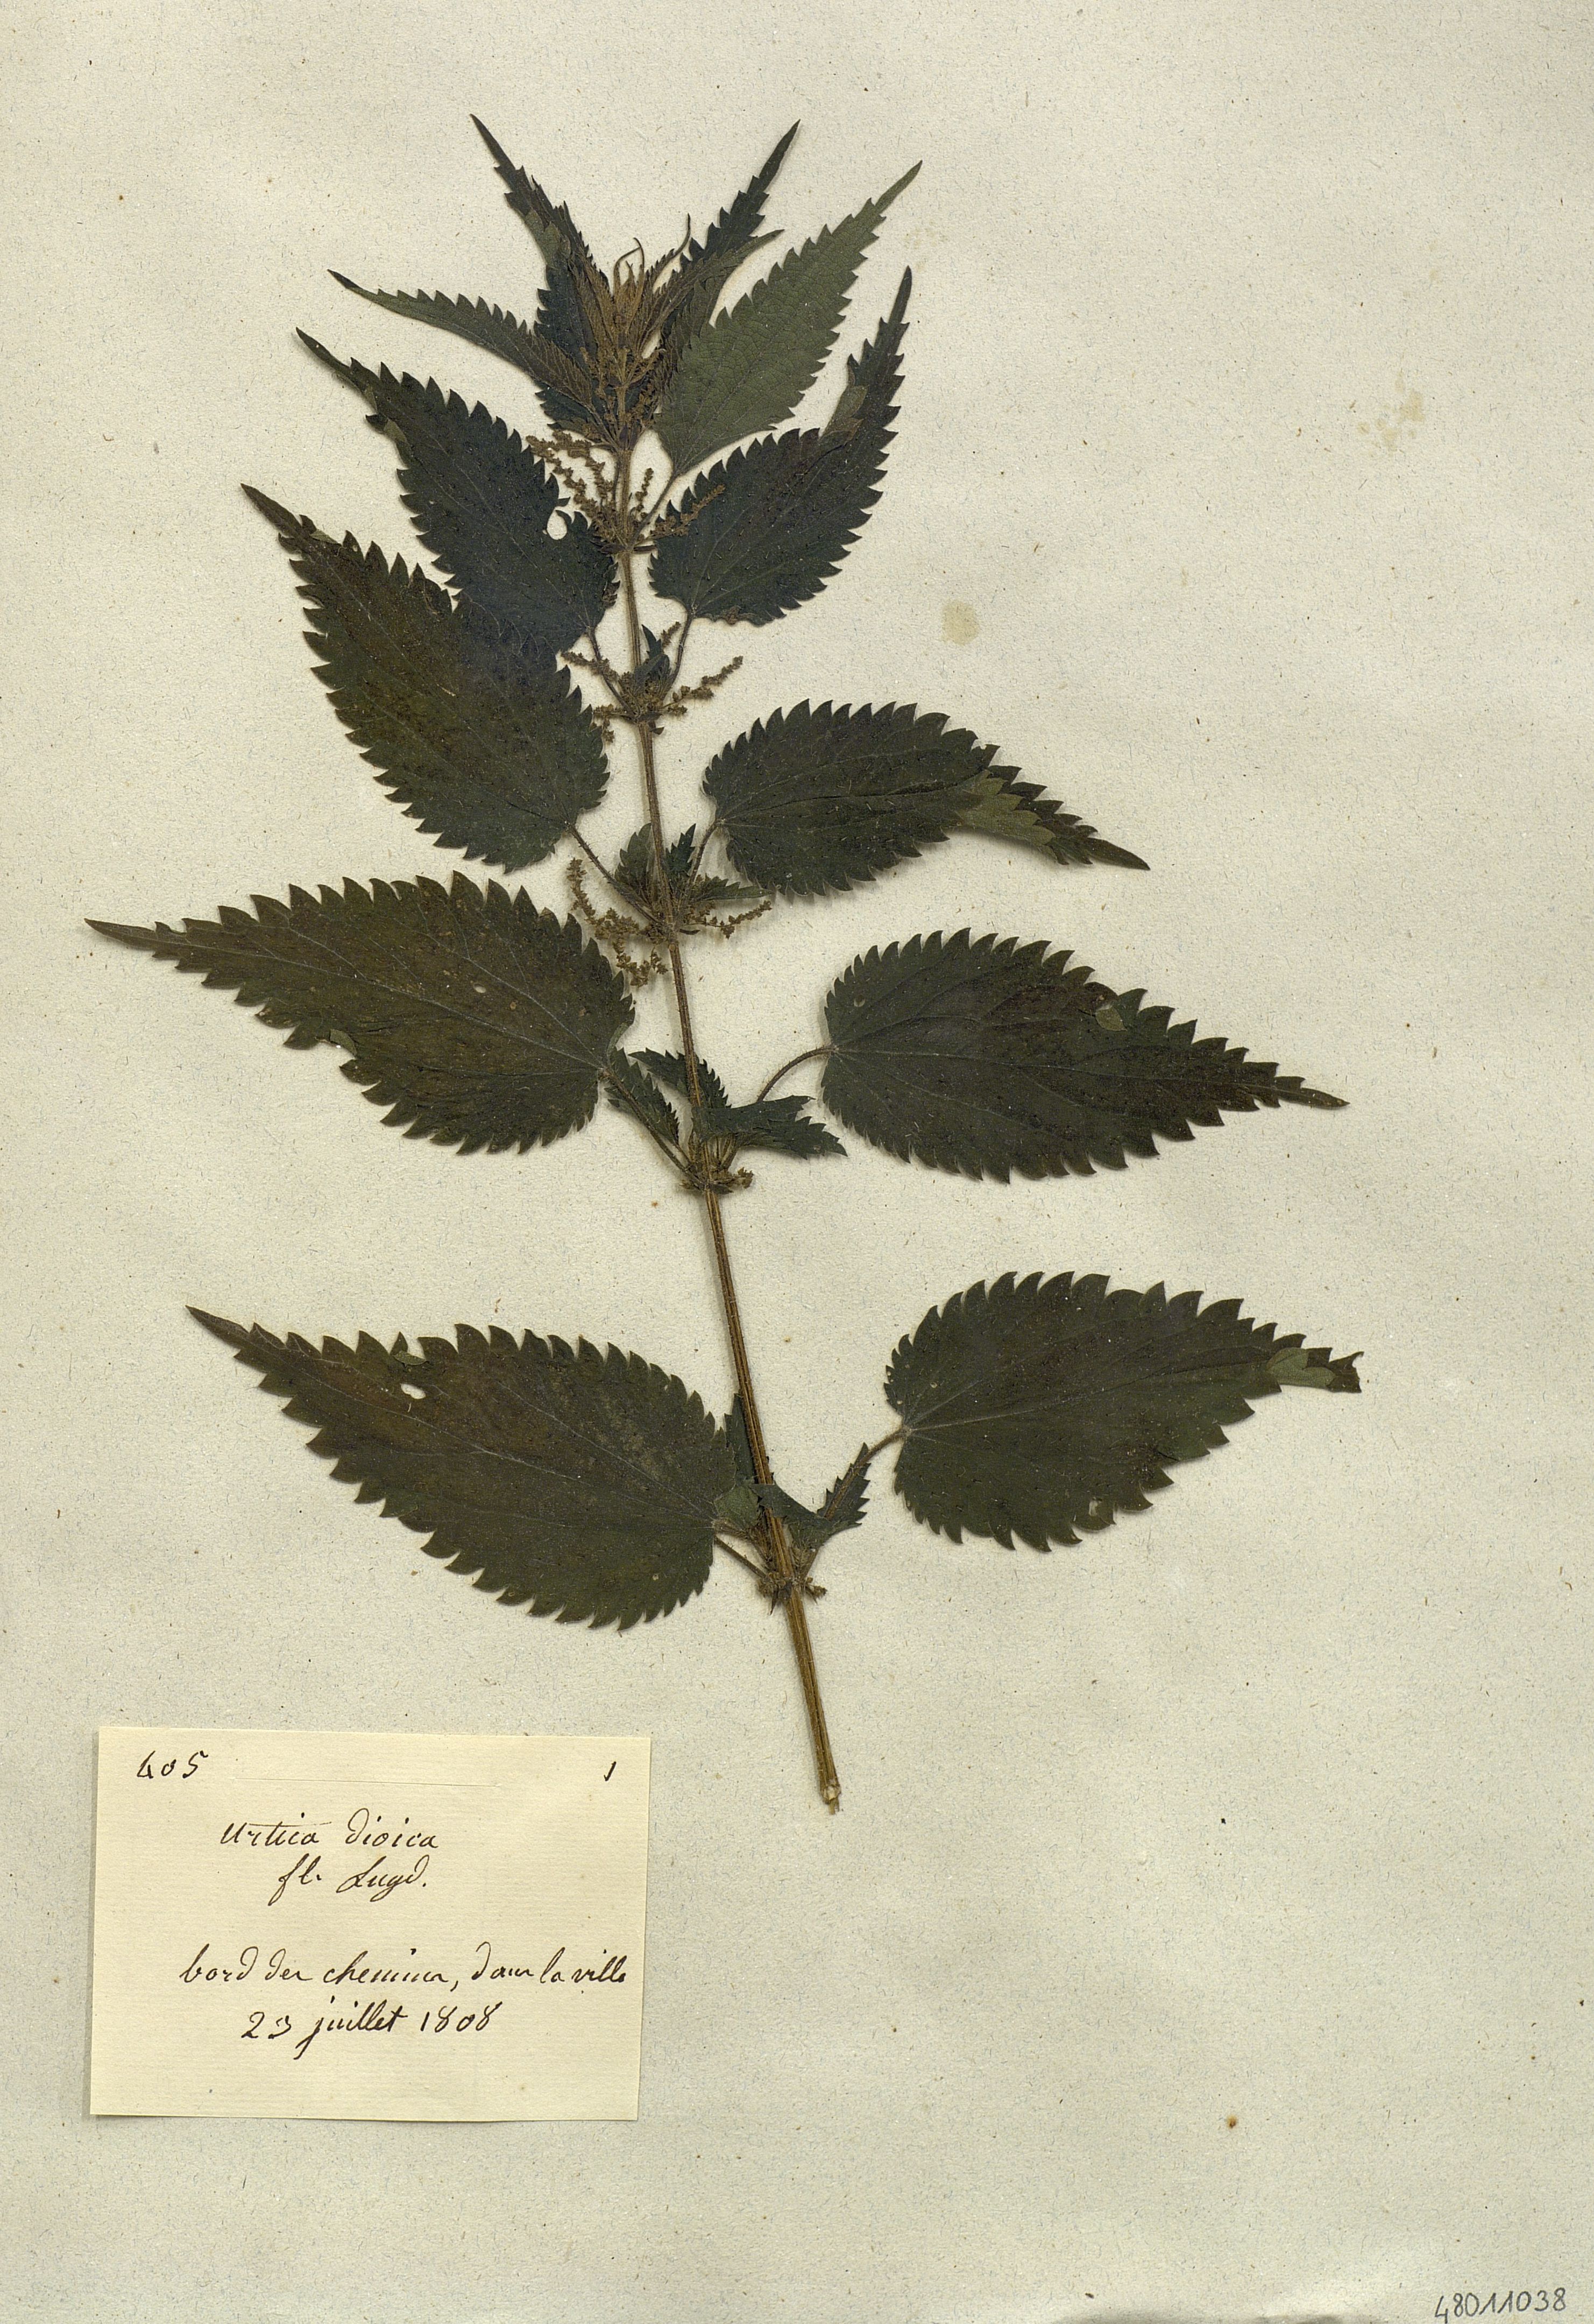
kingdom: Plantae
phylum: Tracheophyta
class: Magnoliopsida
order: Rosales
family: Urticaceae
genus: Urtica
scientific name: Urtica dioica
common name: Common nettle
